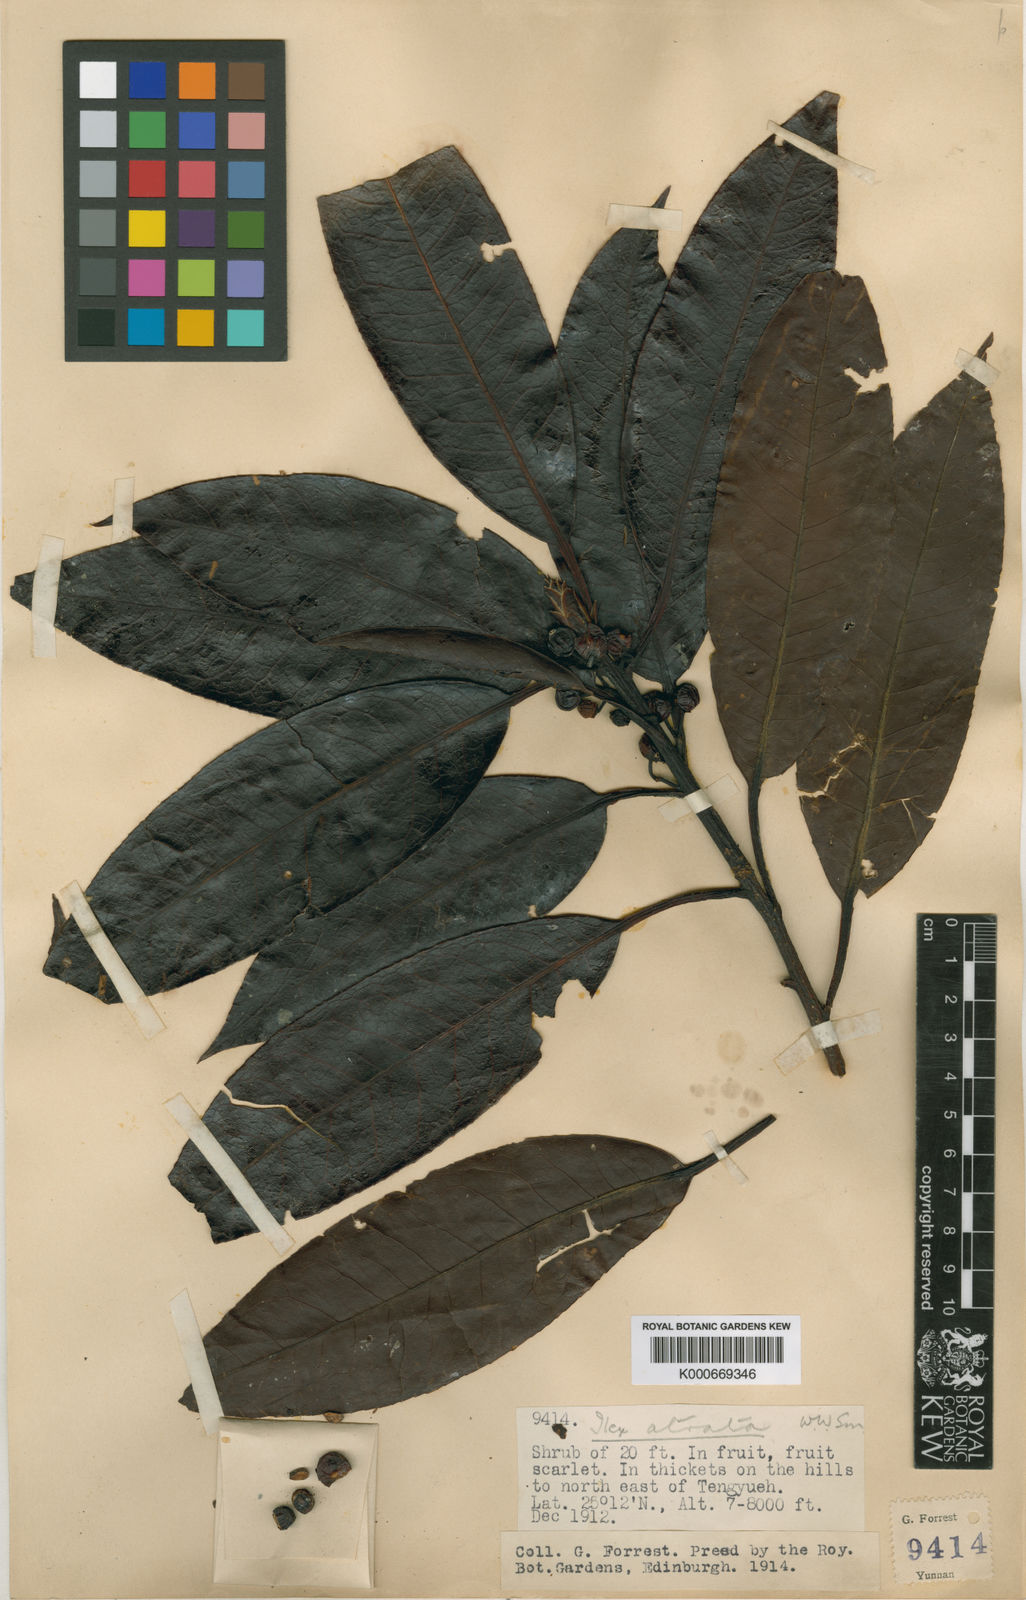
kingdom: Plantae
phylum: Tracheophyta
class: Magnoliopsida
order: Aquifoliales
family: Aquifoliaceae
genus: Ilex
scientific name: Ilex atrata
